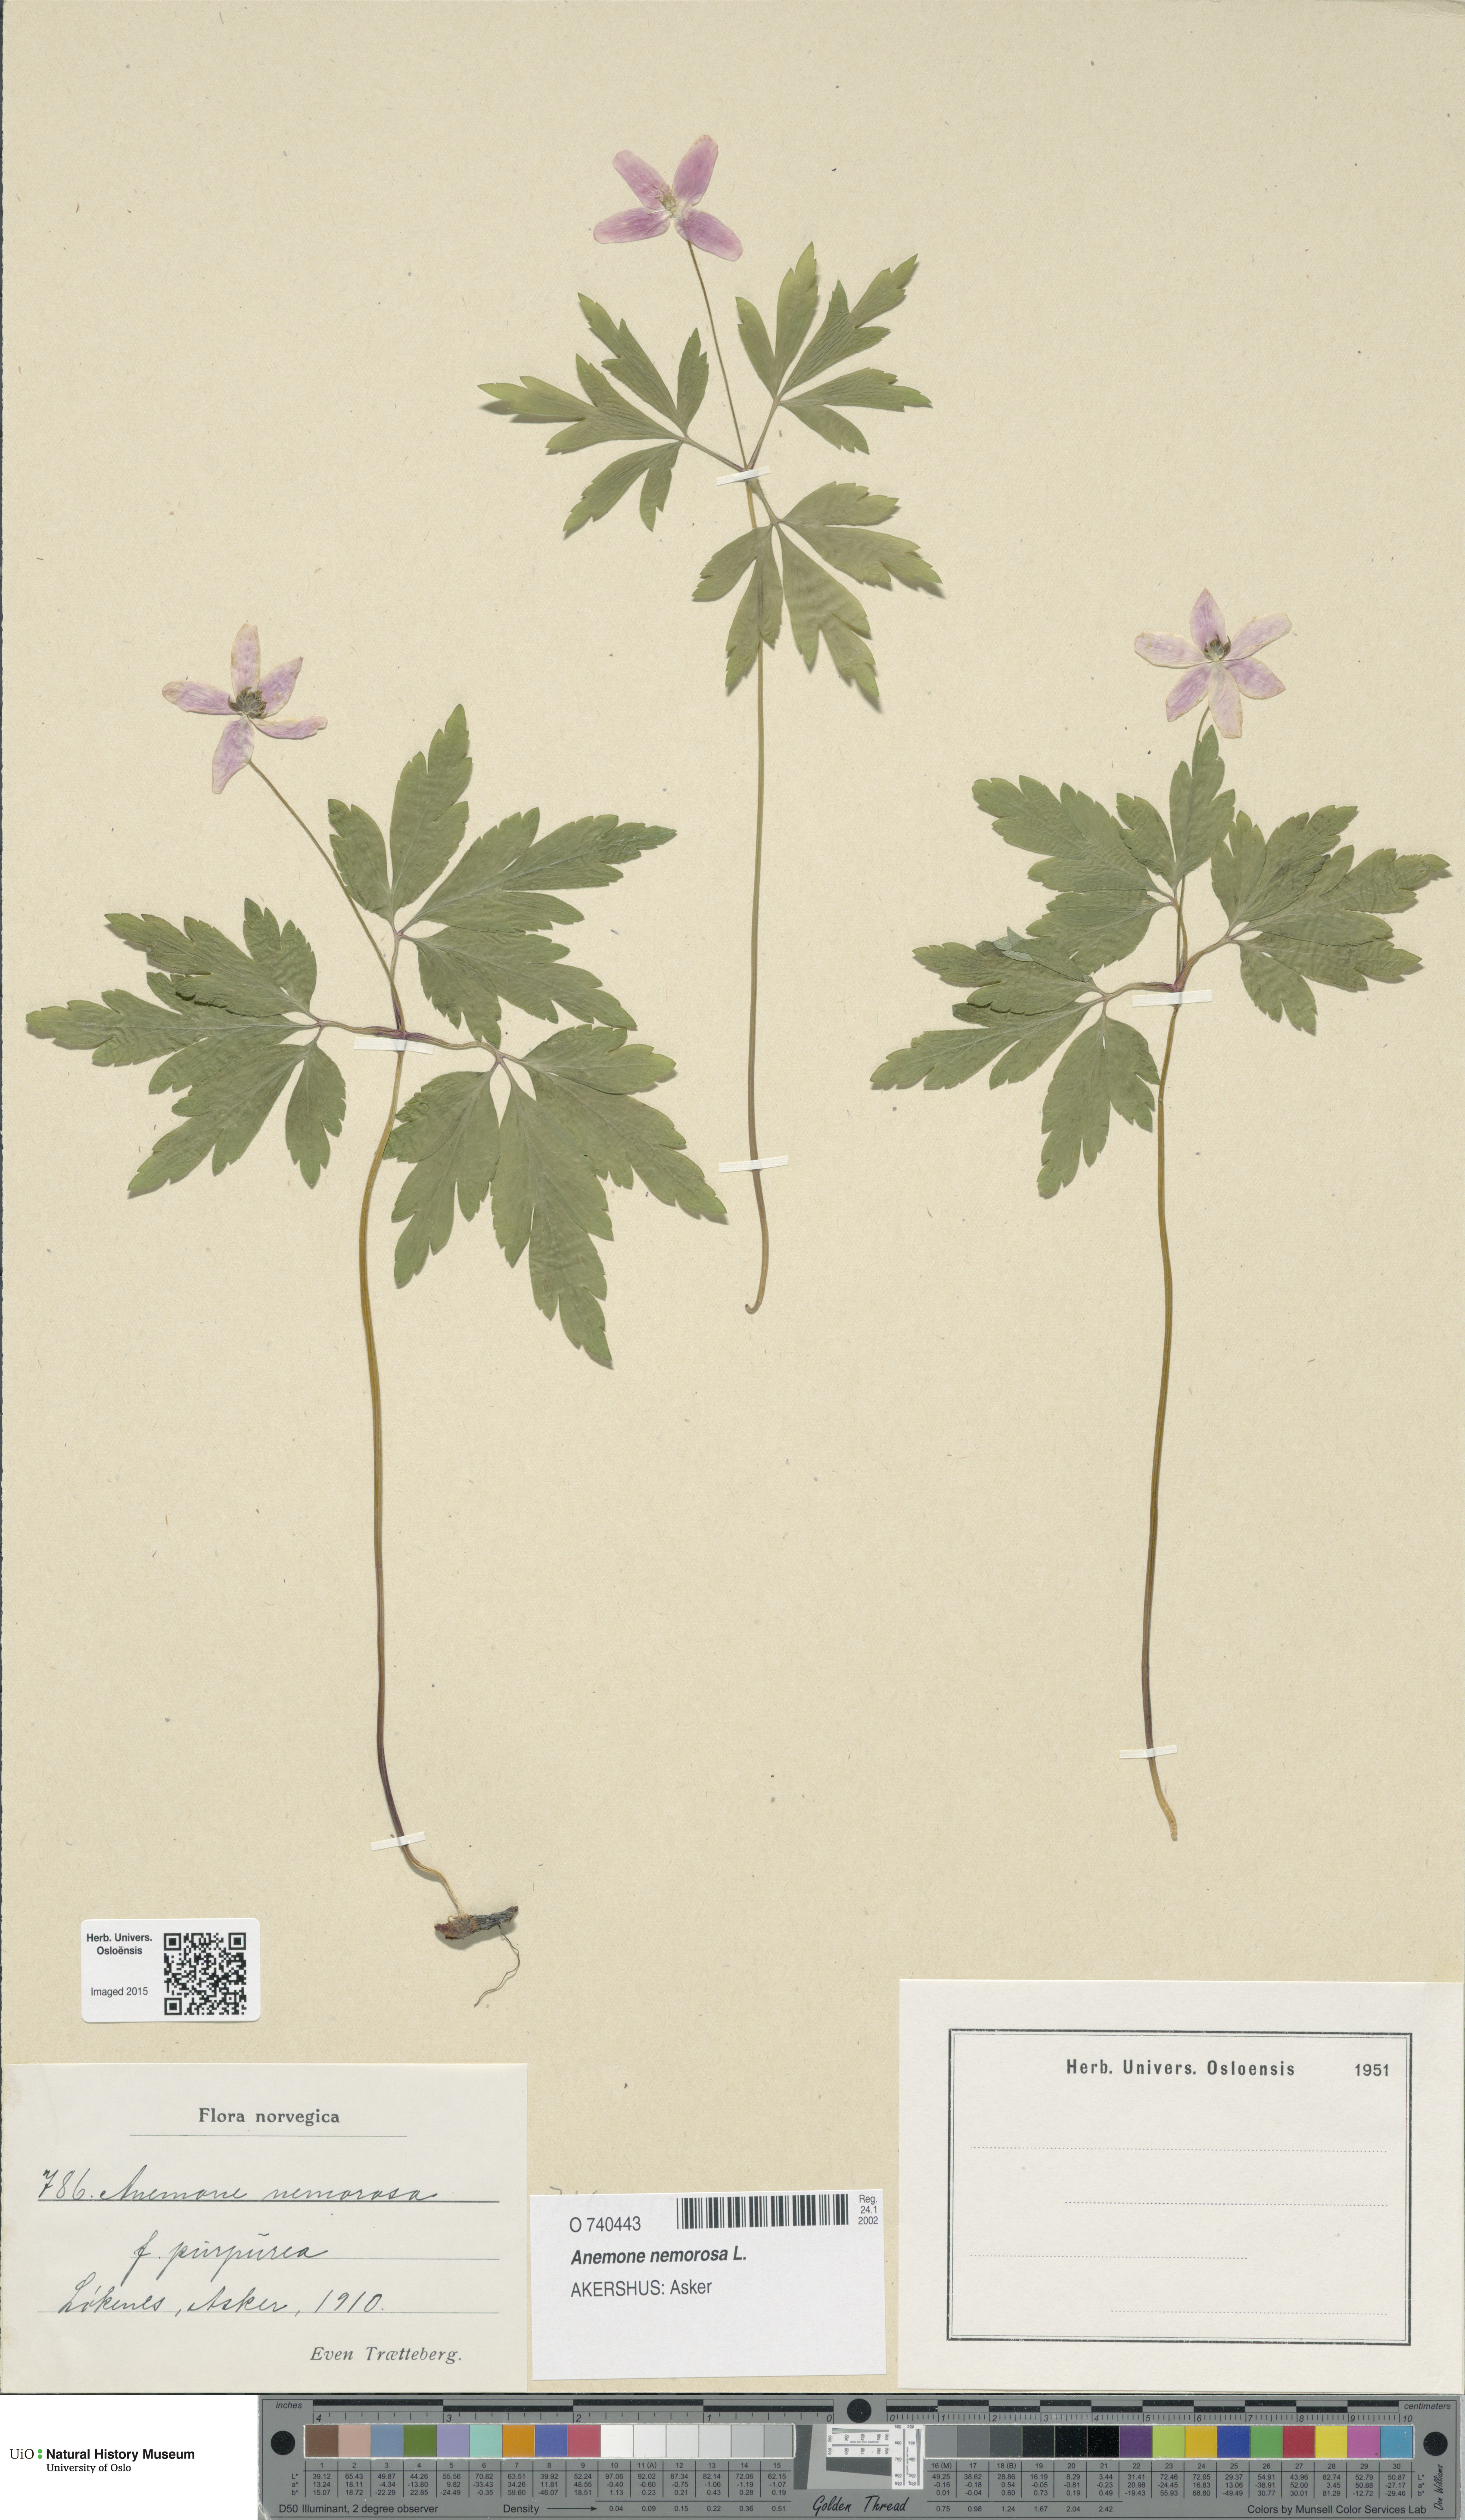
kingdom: Plantae
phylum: Tracheophyta
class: Magnoliopsida
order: Ranunculales
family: Ranunculaceae
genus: Anemone
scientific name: Anemone nemorosa
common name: Wood anemone
